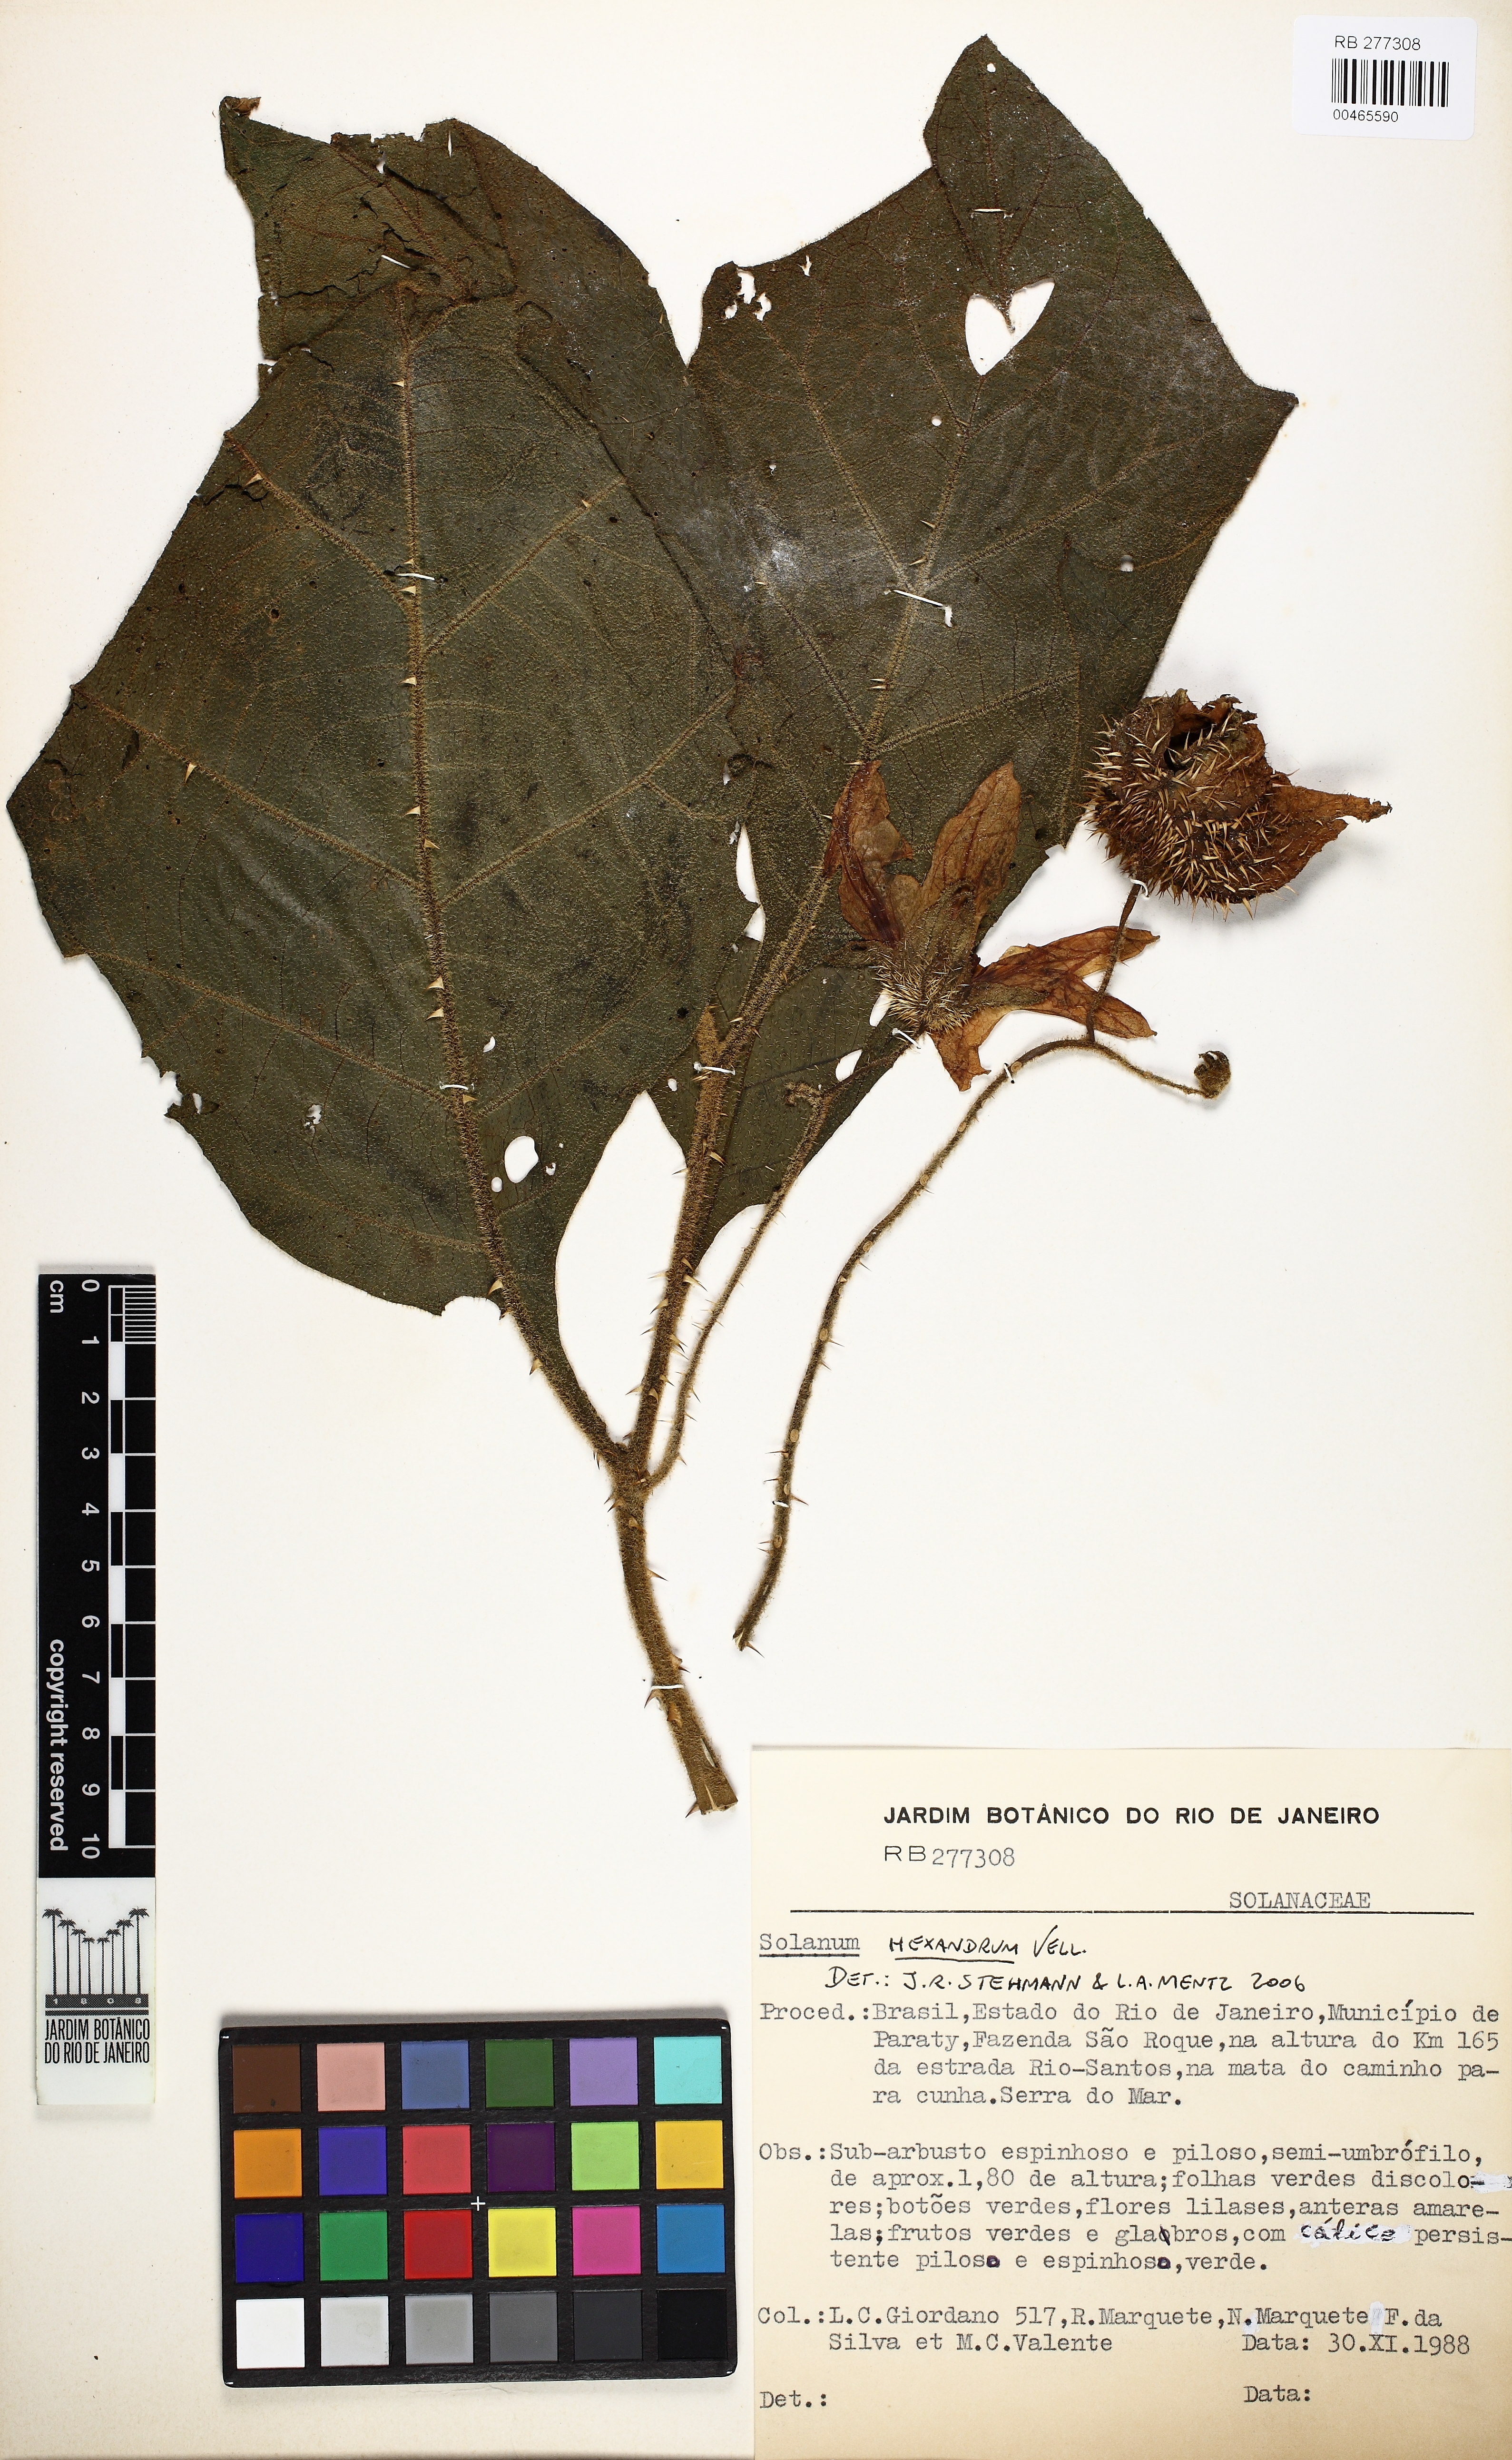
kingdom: Plantae
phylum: Tracheophyta
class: Magnoliopsida
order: Solanales
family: Solanaceae
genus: Solanum
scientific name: Solanum hexandrum
